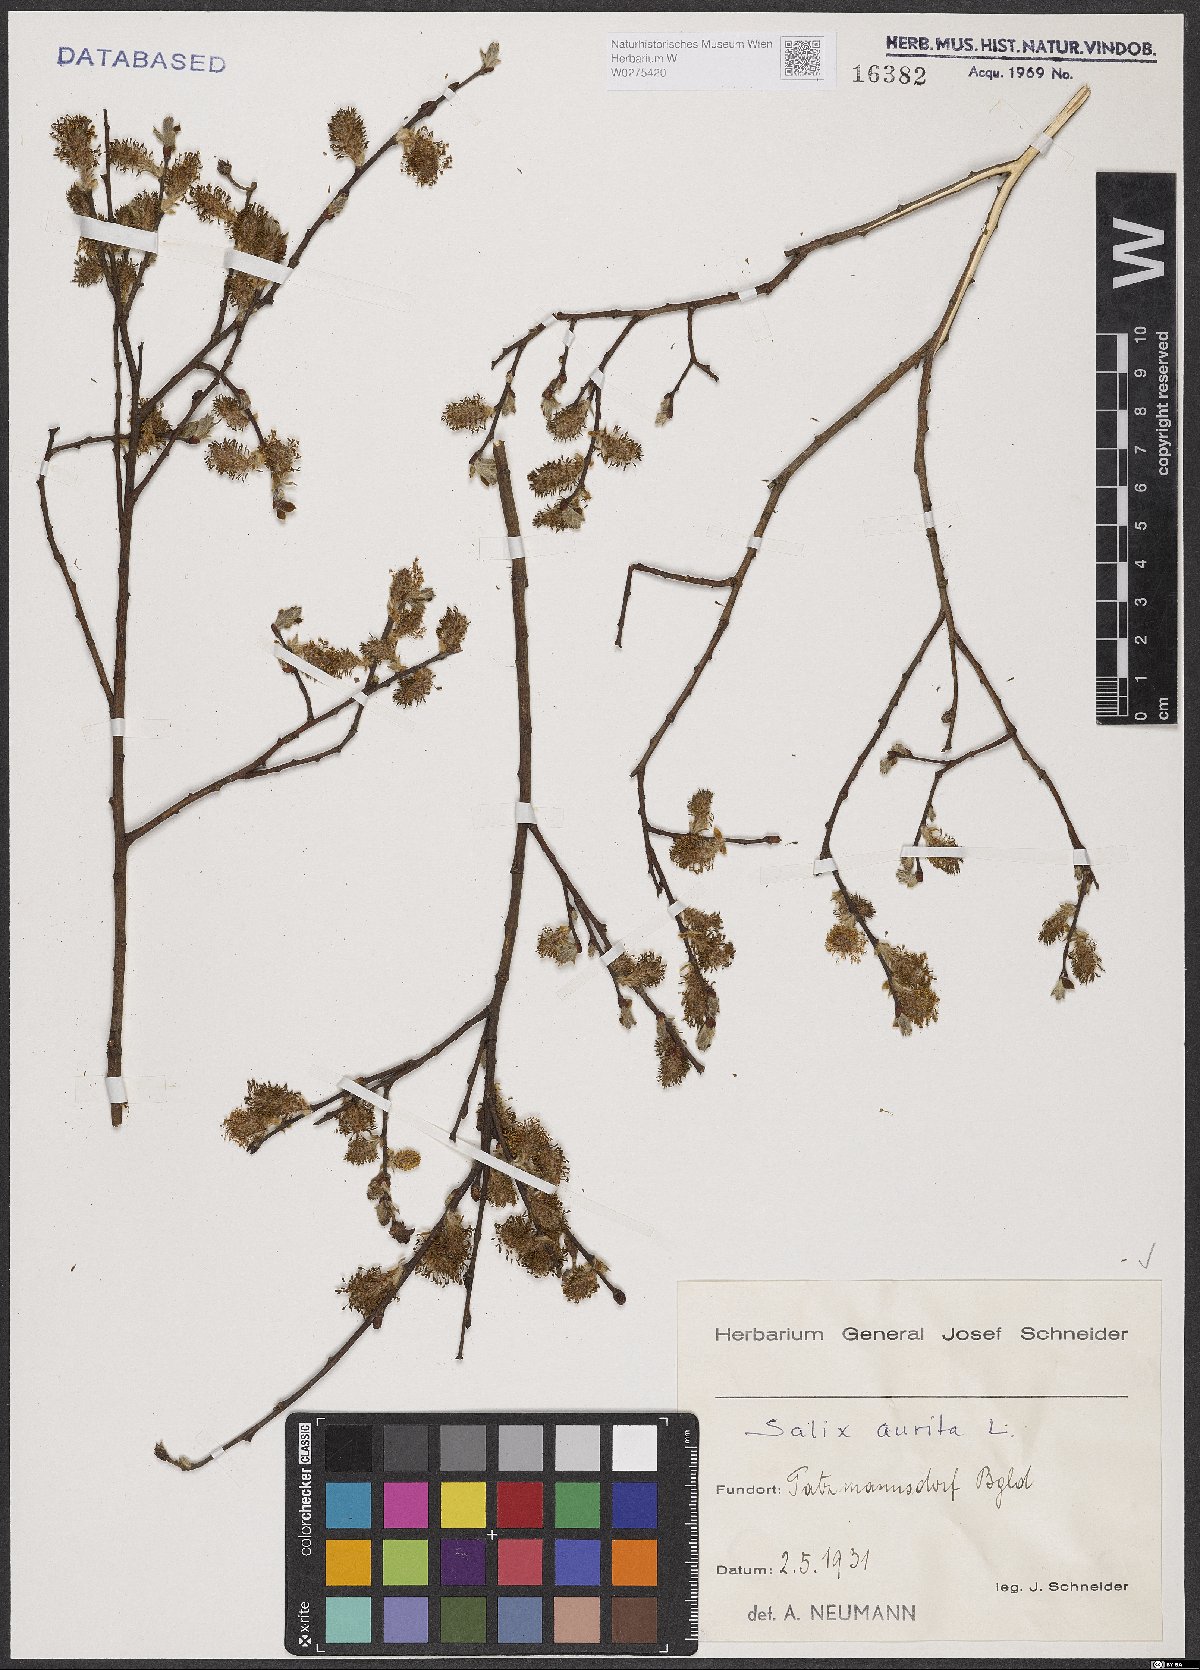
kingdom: Plantae
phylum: Tracheophyta
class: Magnoliopsida
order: Malpighiales
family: Salicaceae
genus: Salix
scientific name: Salix aurita
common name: Eared willow
